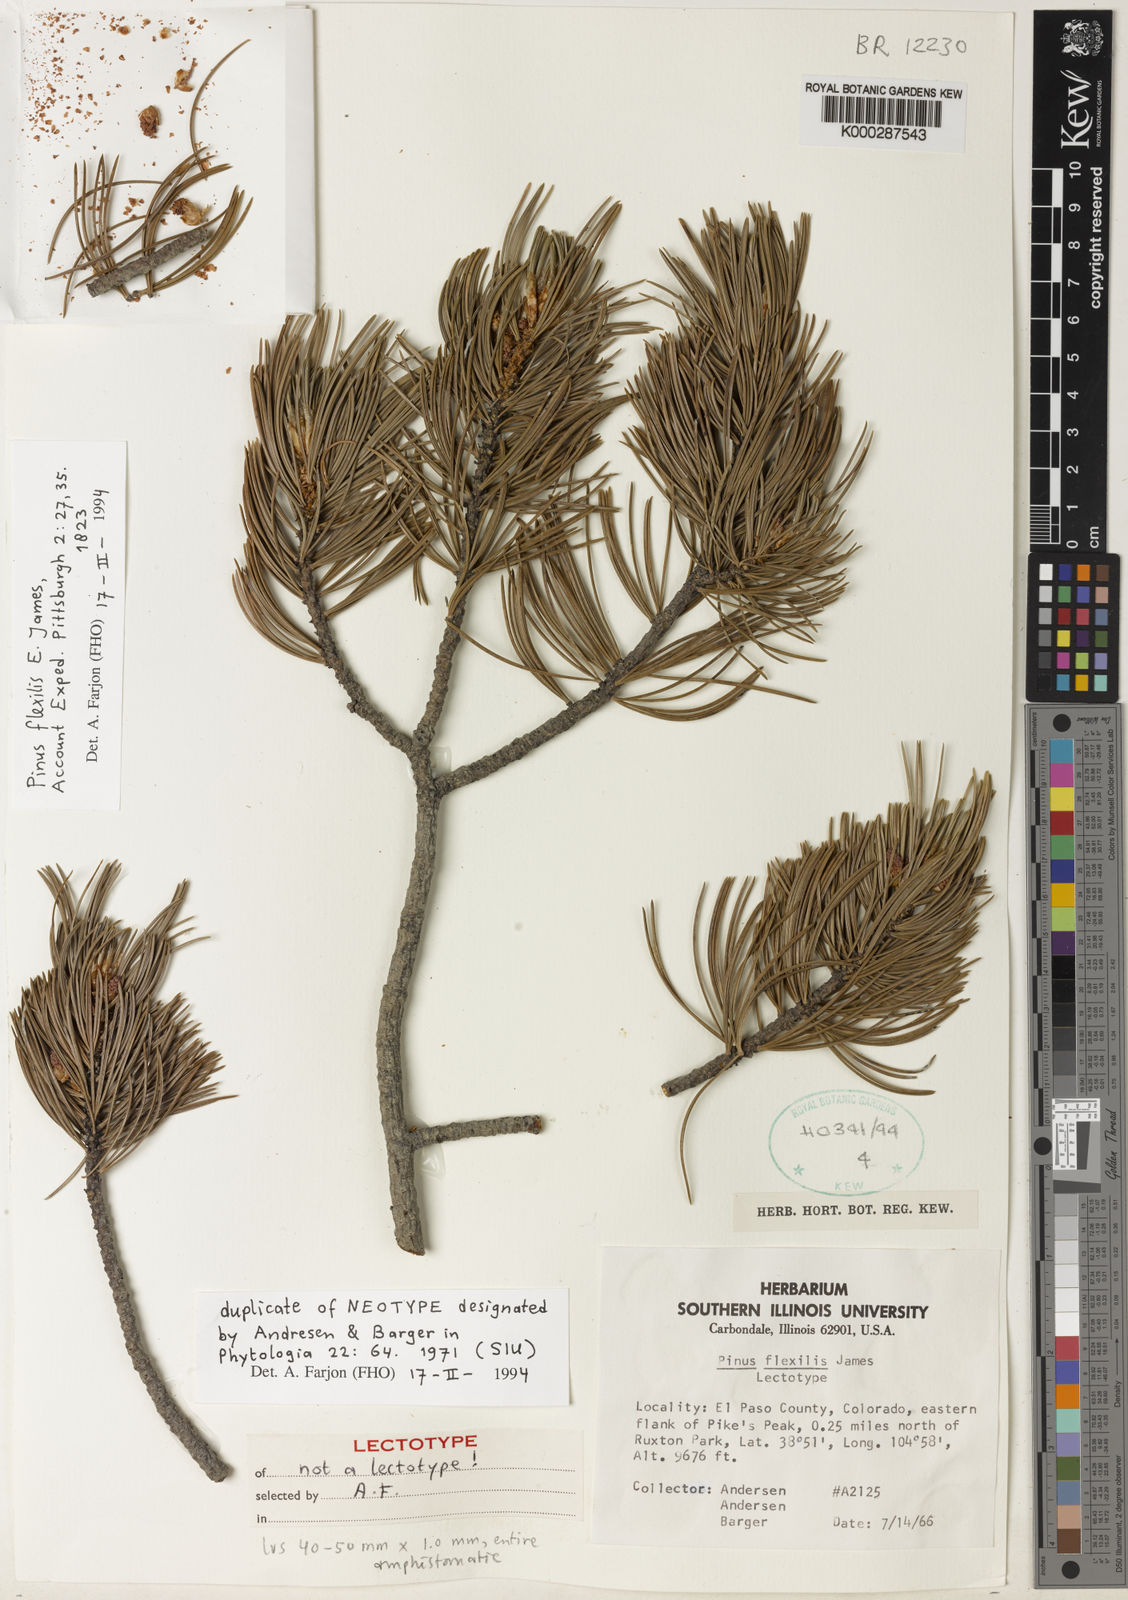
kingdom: Plantae
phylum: Tracheophyta
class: Pinopsida
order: Pinales
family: Pinaceae
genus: Pinus
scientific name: Pinus flexilis
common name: Limber pine
